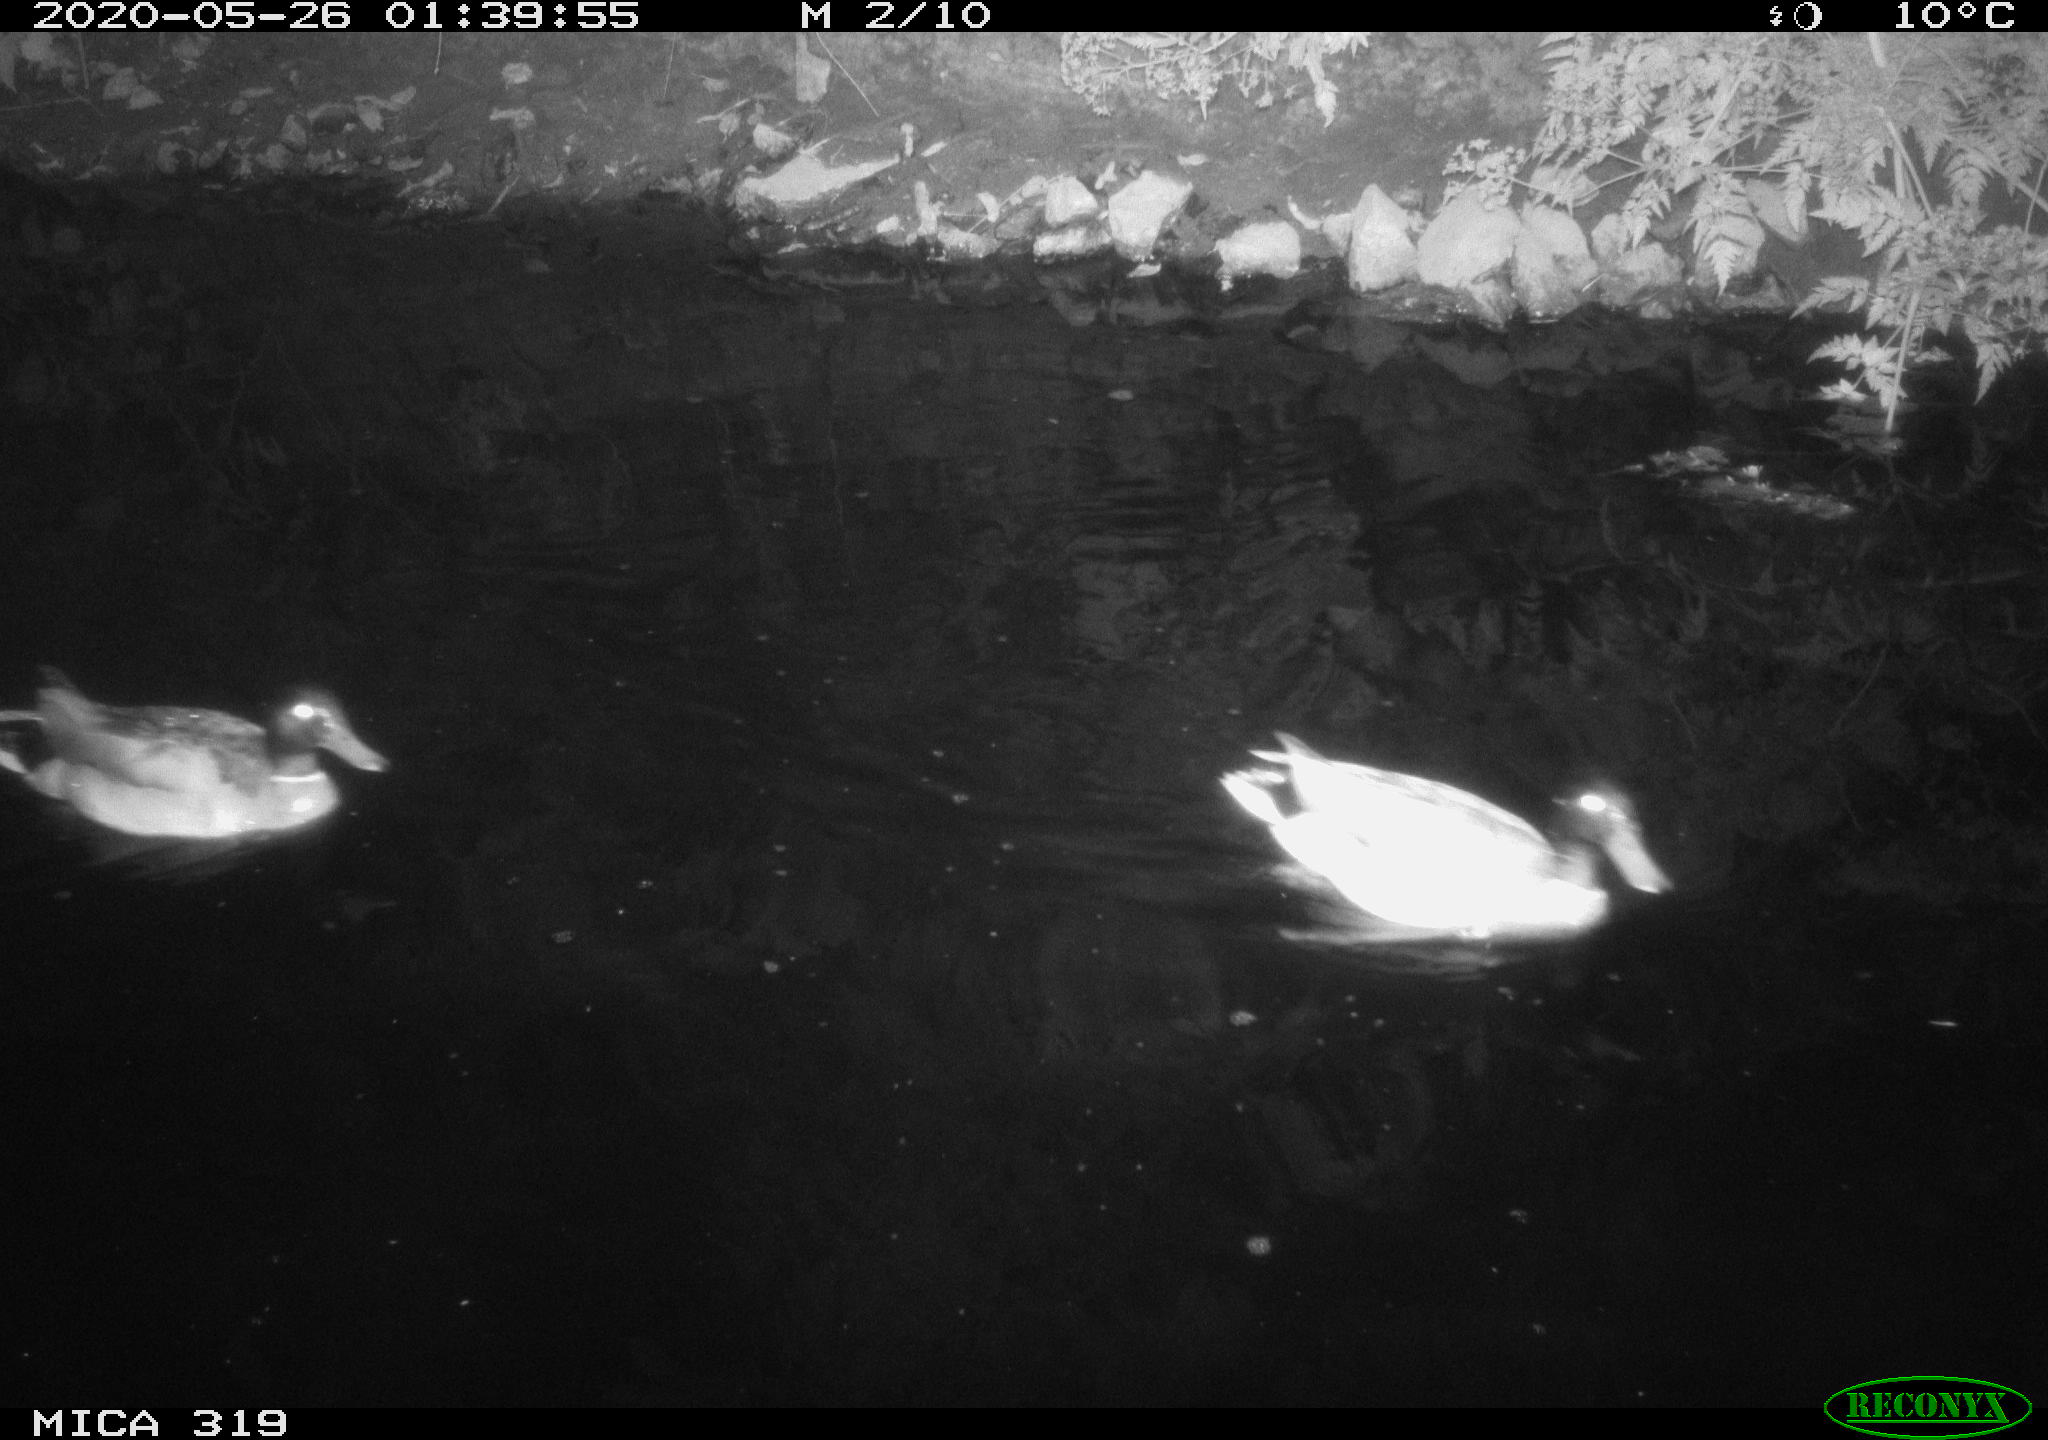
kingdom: Animalia
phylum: Chordata
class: Aves
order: Anseriformes
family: Anatidae
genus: Anas
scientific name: Anas platyrhynchos
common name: Mallard
